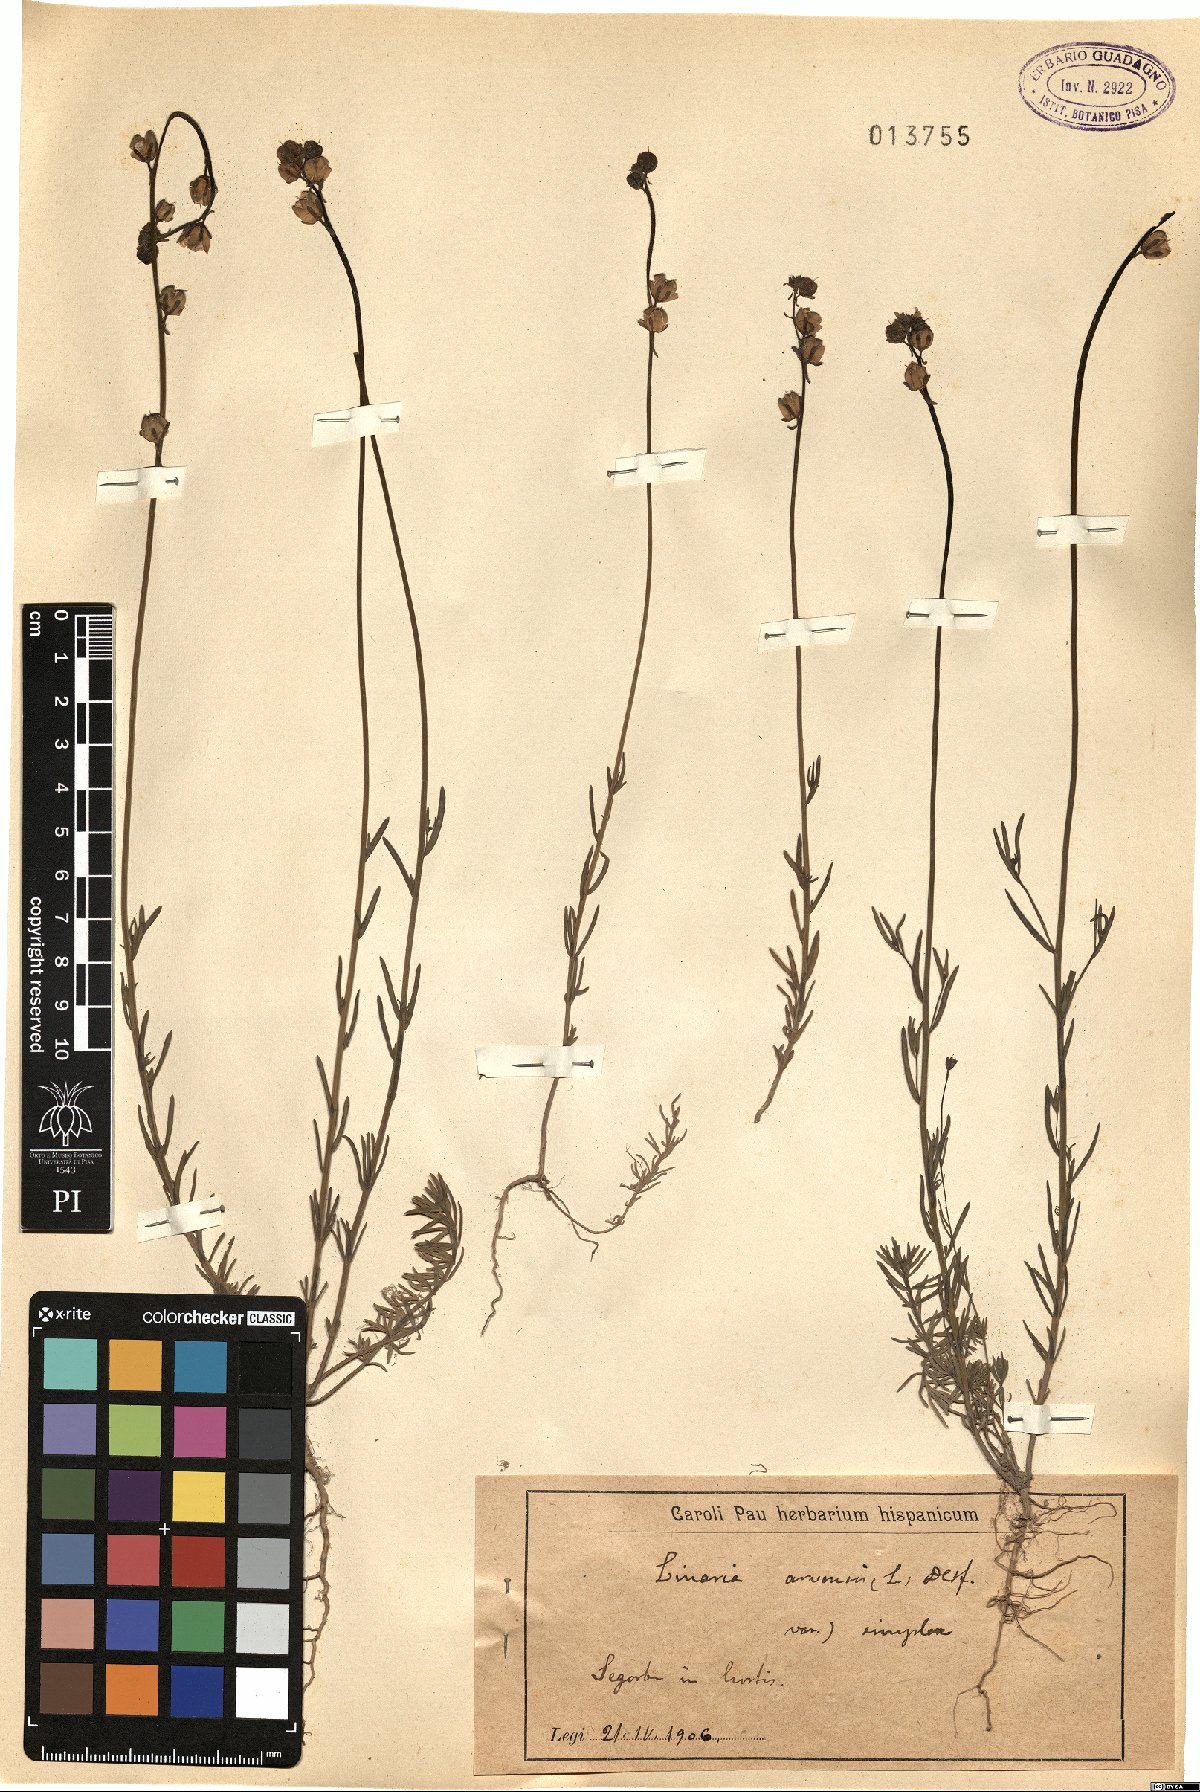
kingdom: Plantae
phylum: Tracheophyta
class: Magnoliopsida
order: Lamiales
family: Plantaginaceae
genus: Linaria
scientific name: Linaria simplex
